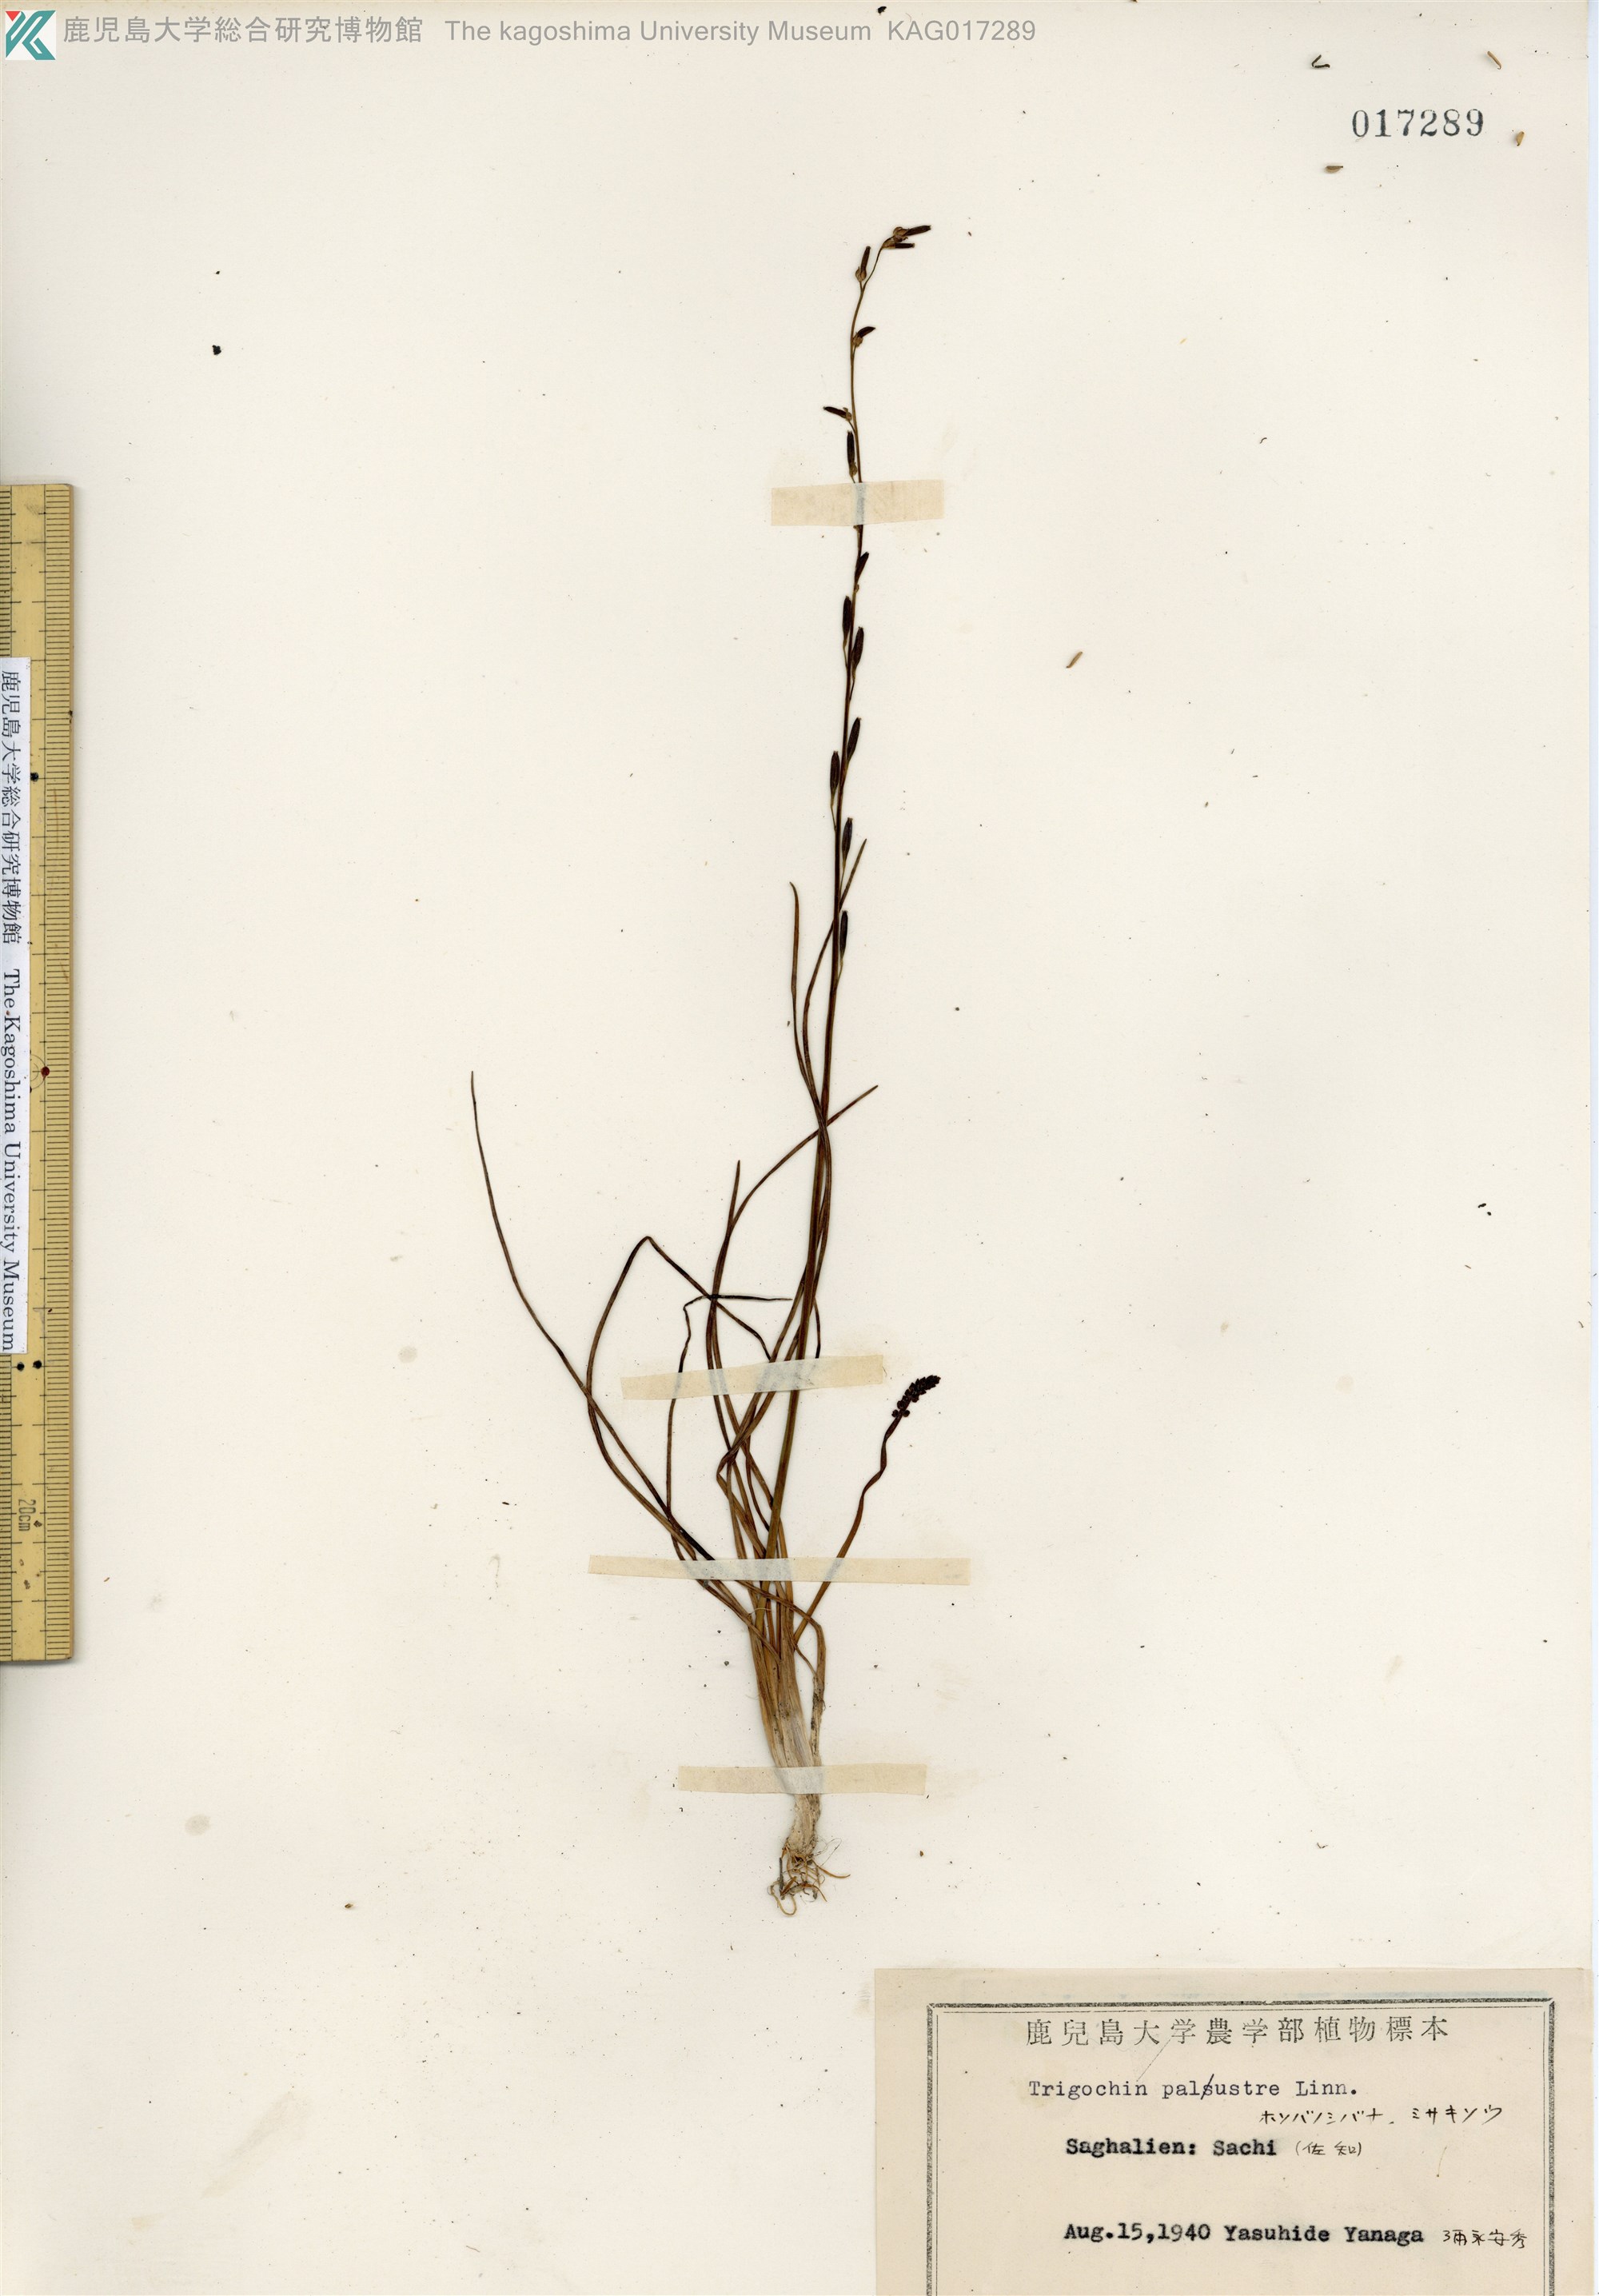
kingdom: Plantae
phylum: Tracheophyta
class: Liliopsida
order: Alismatales
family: Juncaginaceae
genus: Triglochin
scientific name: Triglochin palustris
